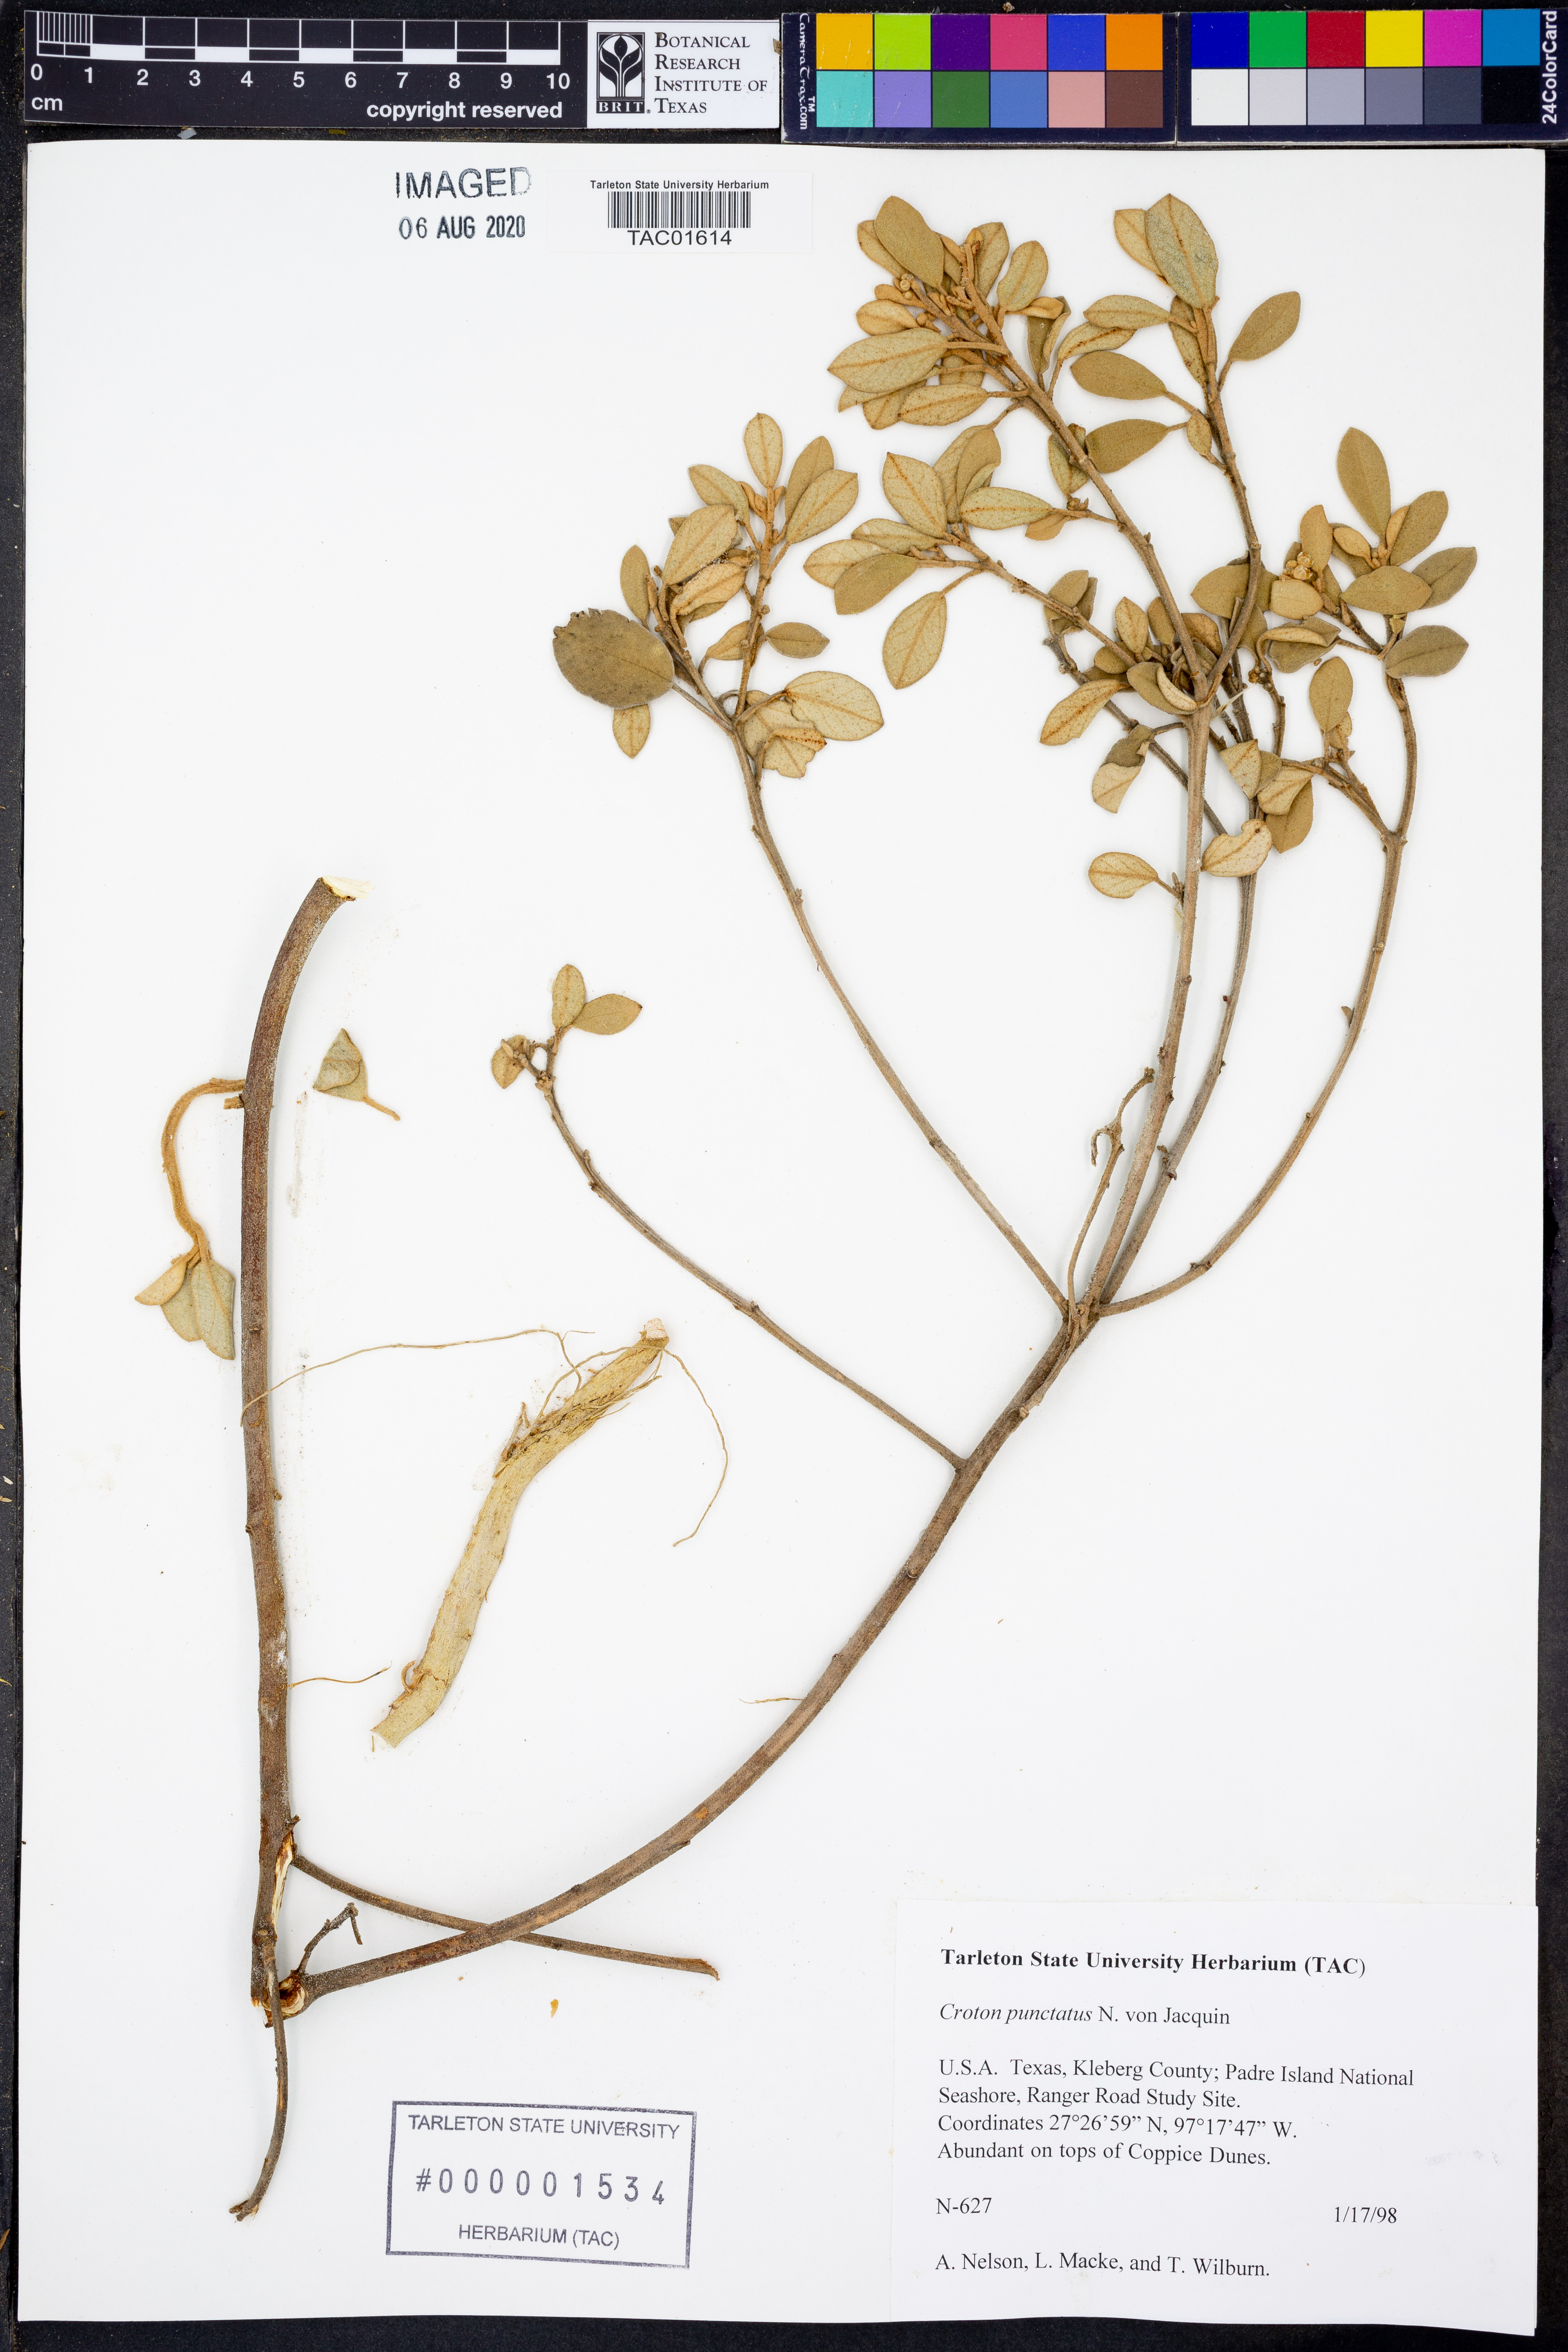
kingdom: Plantae
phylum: Tracheophyta
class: Magnoliopsida
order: Malpighiales
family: Euphorbiaceae
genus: Croton
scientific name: Croton punctatus
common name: Beach-tea
